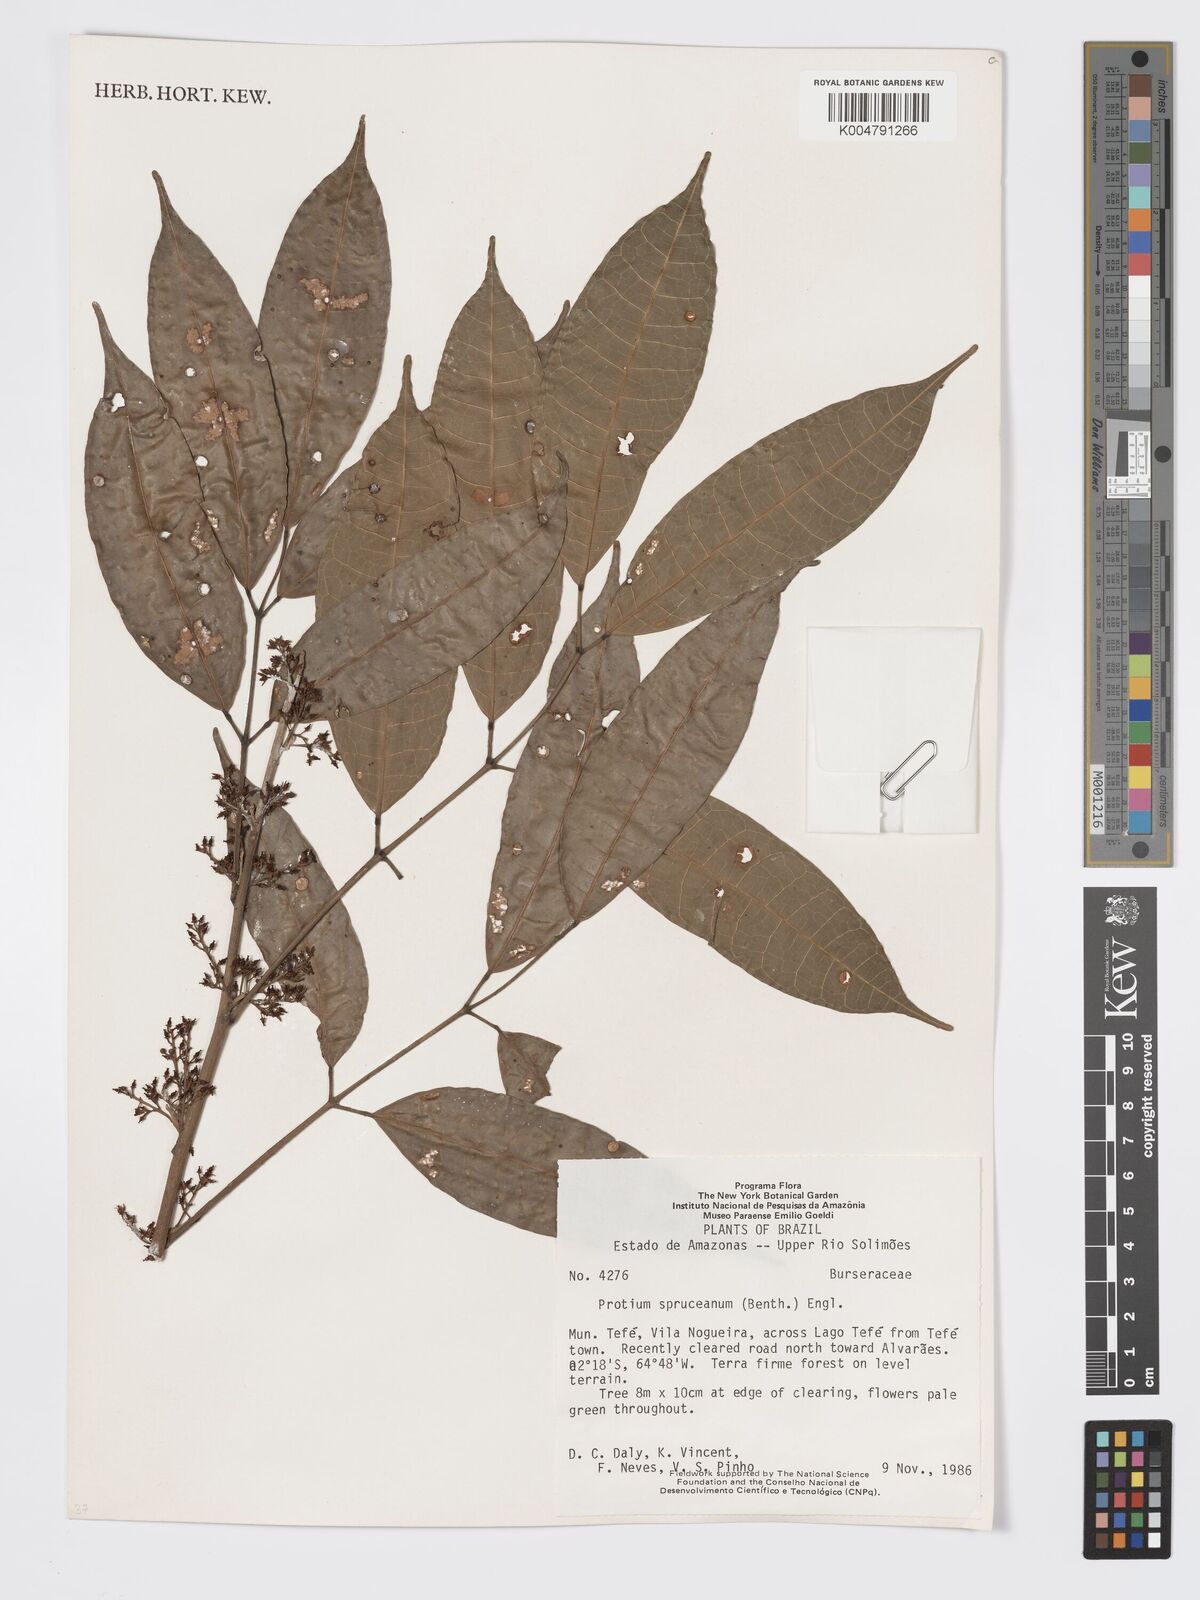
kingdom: Plantae
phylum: Tracheophyta
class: Magnoliopsida
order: Sapindales
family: Burseraceae
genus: Protium
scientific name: Protium spruceanum
